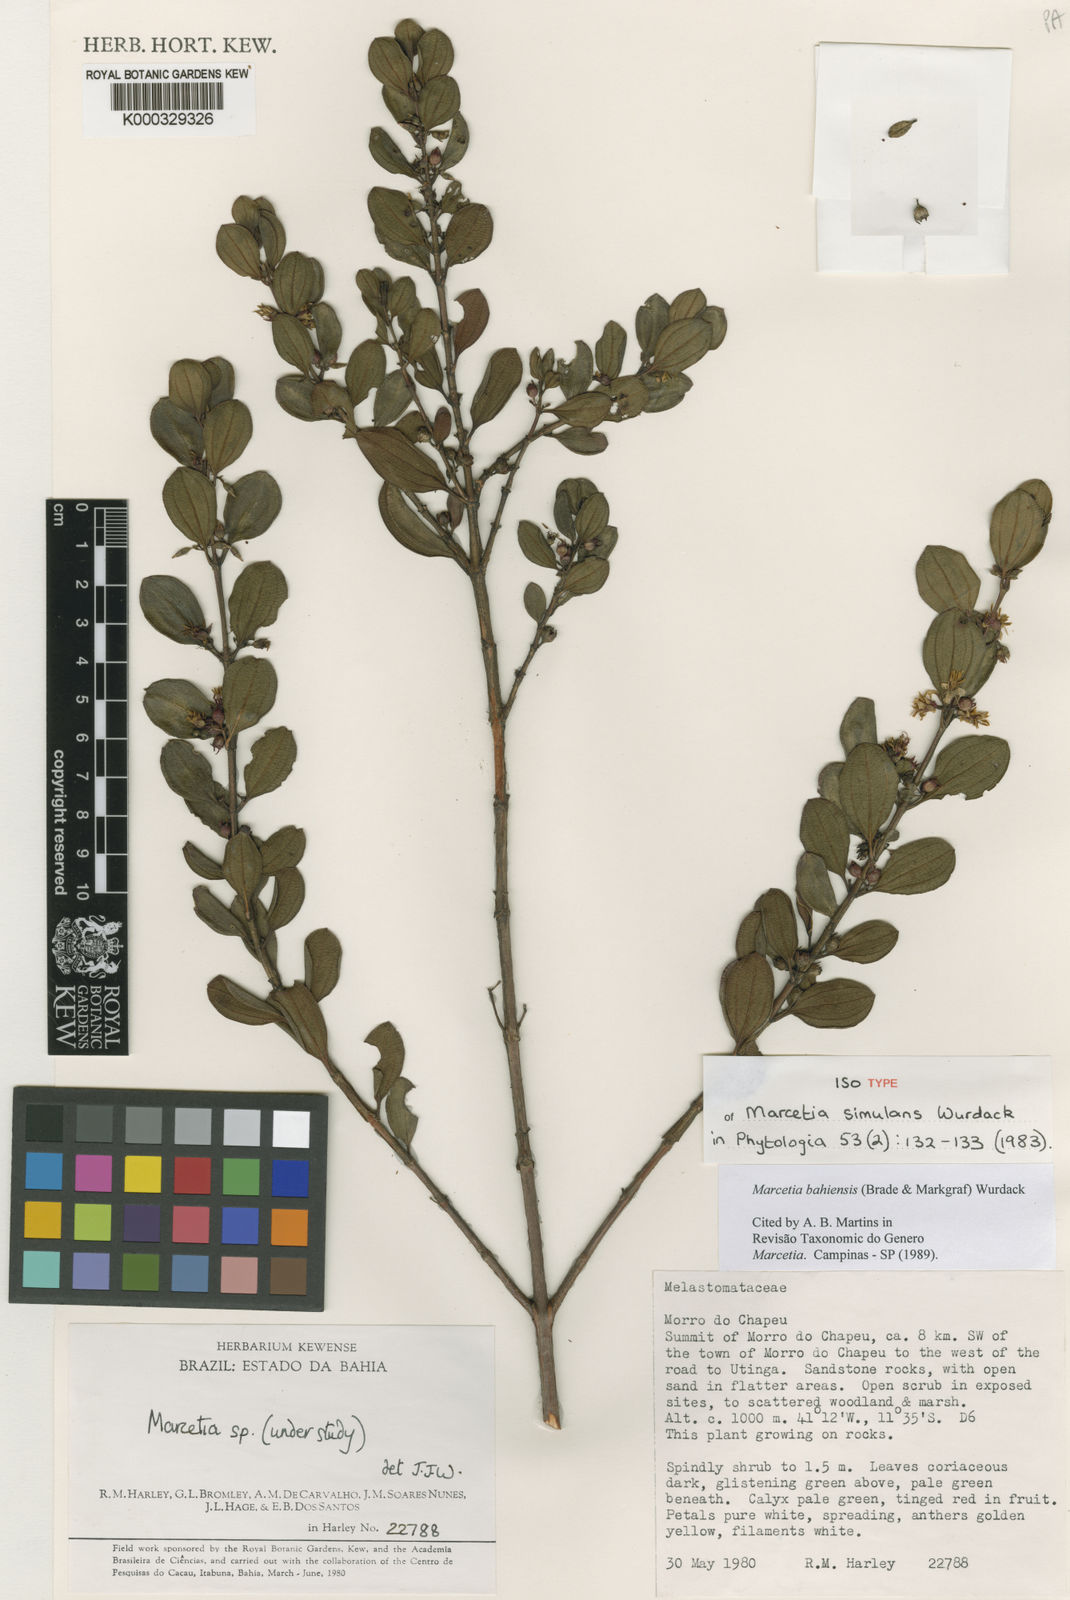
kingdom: Plantae
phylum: Tracheophyta
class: Magnoliopsida
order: Myrtales
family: Melastomataceae
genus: Marcetia
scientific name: Marcetia bahiensis
